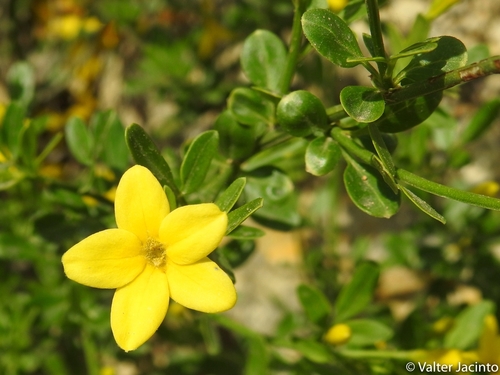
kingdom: Plantae
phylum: Tracheophyta
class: Magnoliopsida
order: Lamiales
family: Oleaceae
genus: Chrysojasminum
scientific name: Chrysojasminum fruticans
